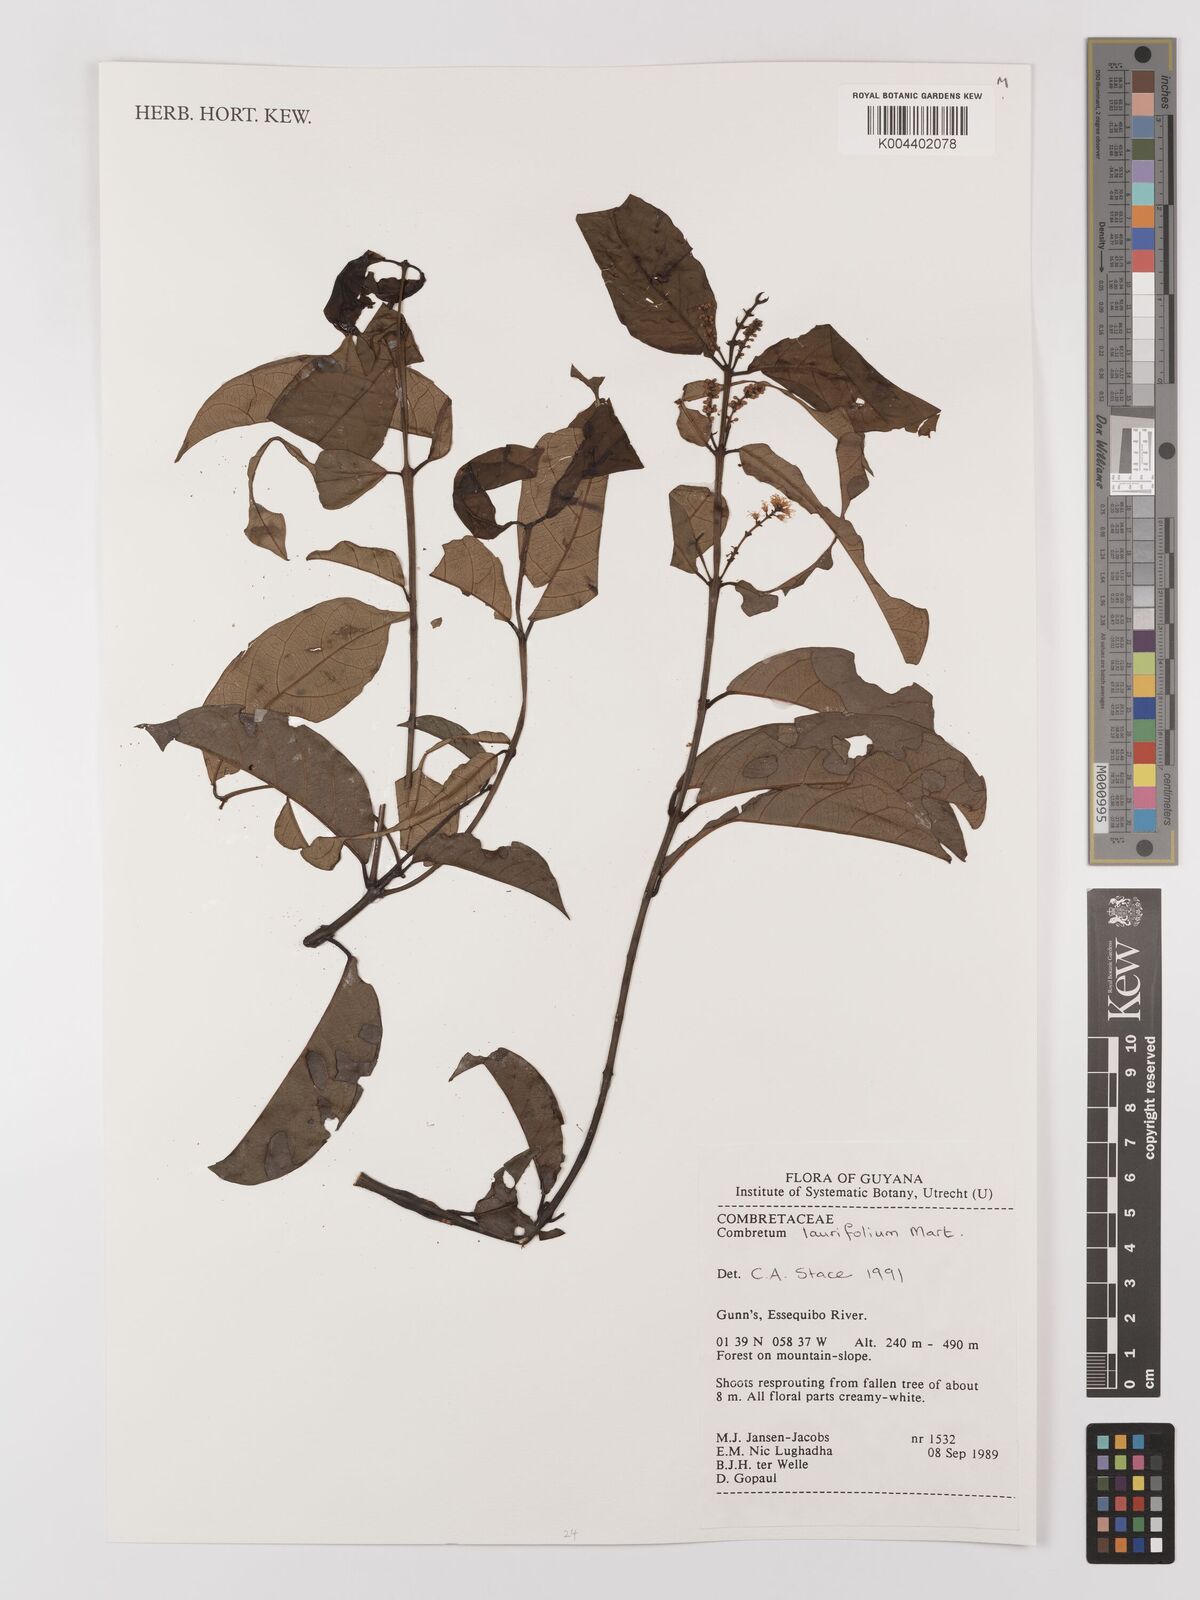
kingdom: Plantae
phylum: Tracheophyta
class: Magnoliopsida
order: Myrtales
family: Combretaceae
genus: Combretum
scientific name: Combretum
